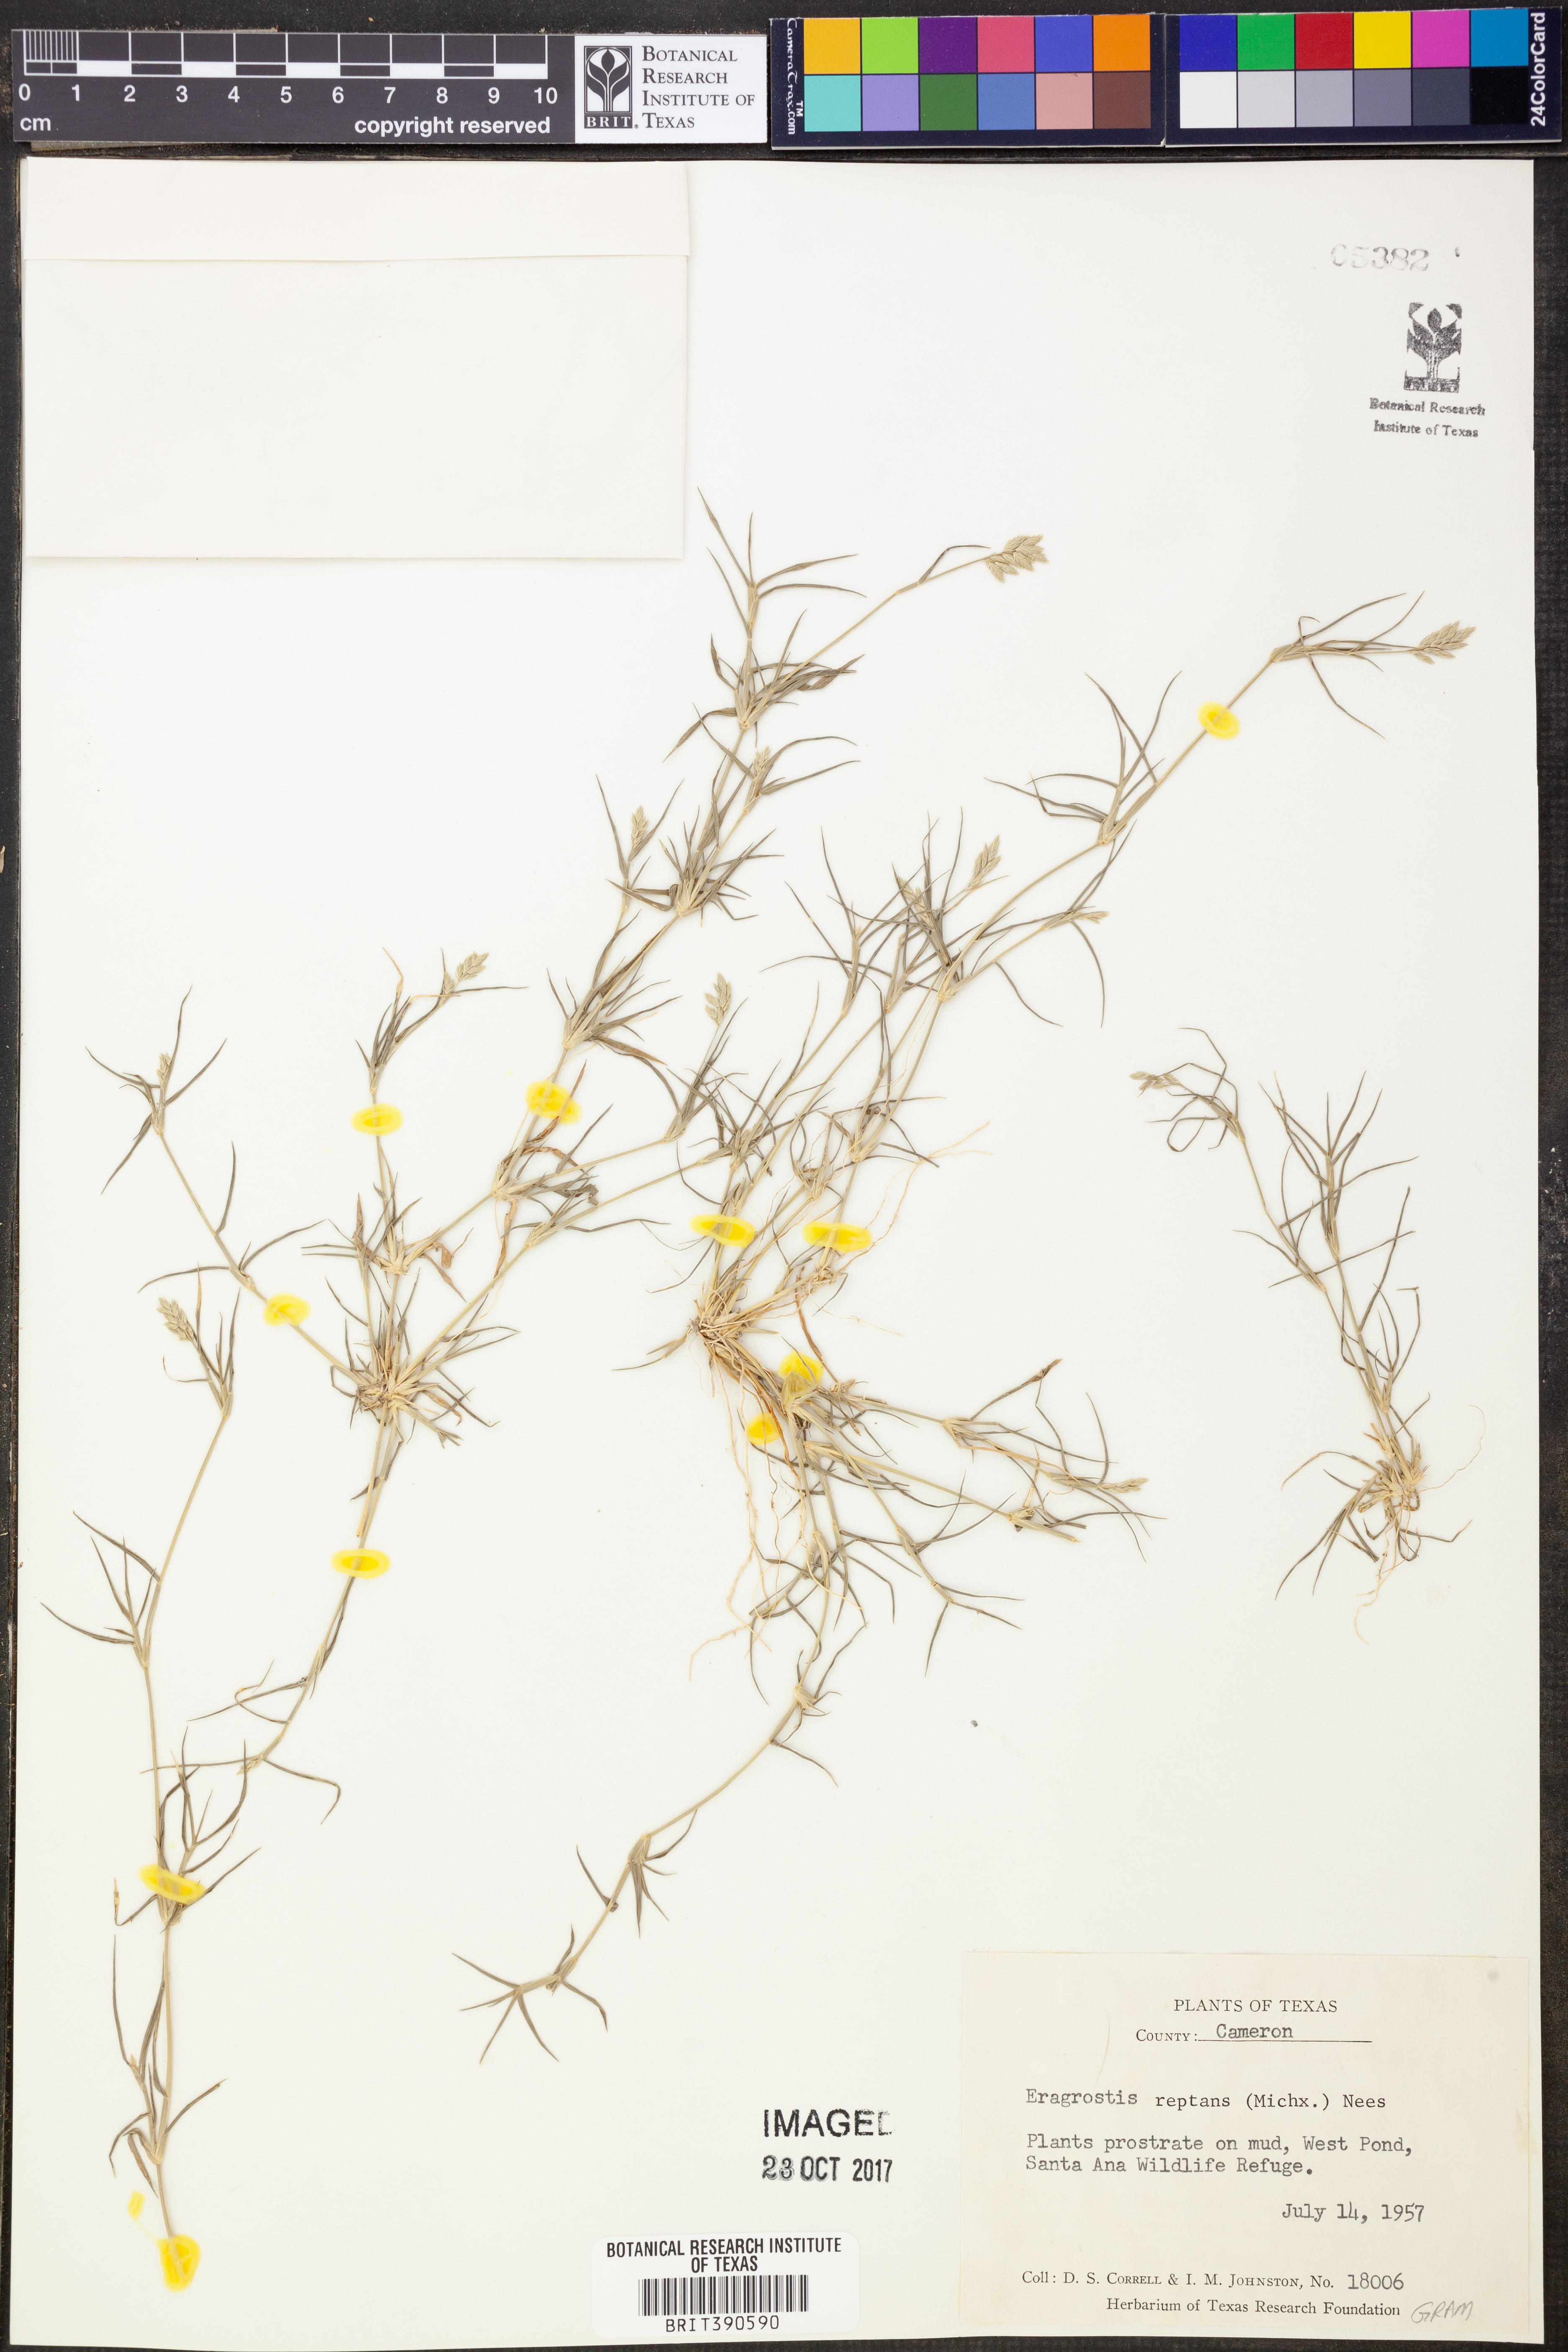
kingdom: Plantae
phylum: Tracheophyta
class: Liliopsida
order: Poales
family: Poaceae
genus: Eragrostis
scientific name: Eragrostis reptans
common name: Creeping love grass
